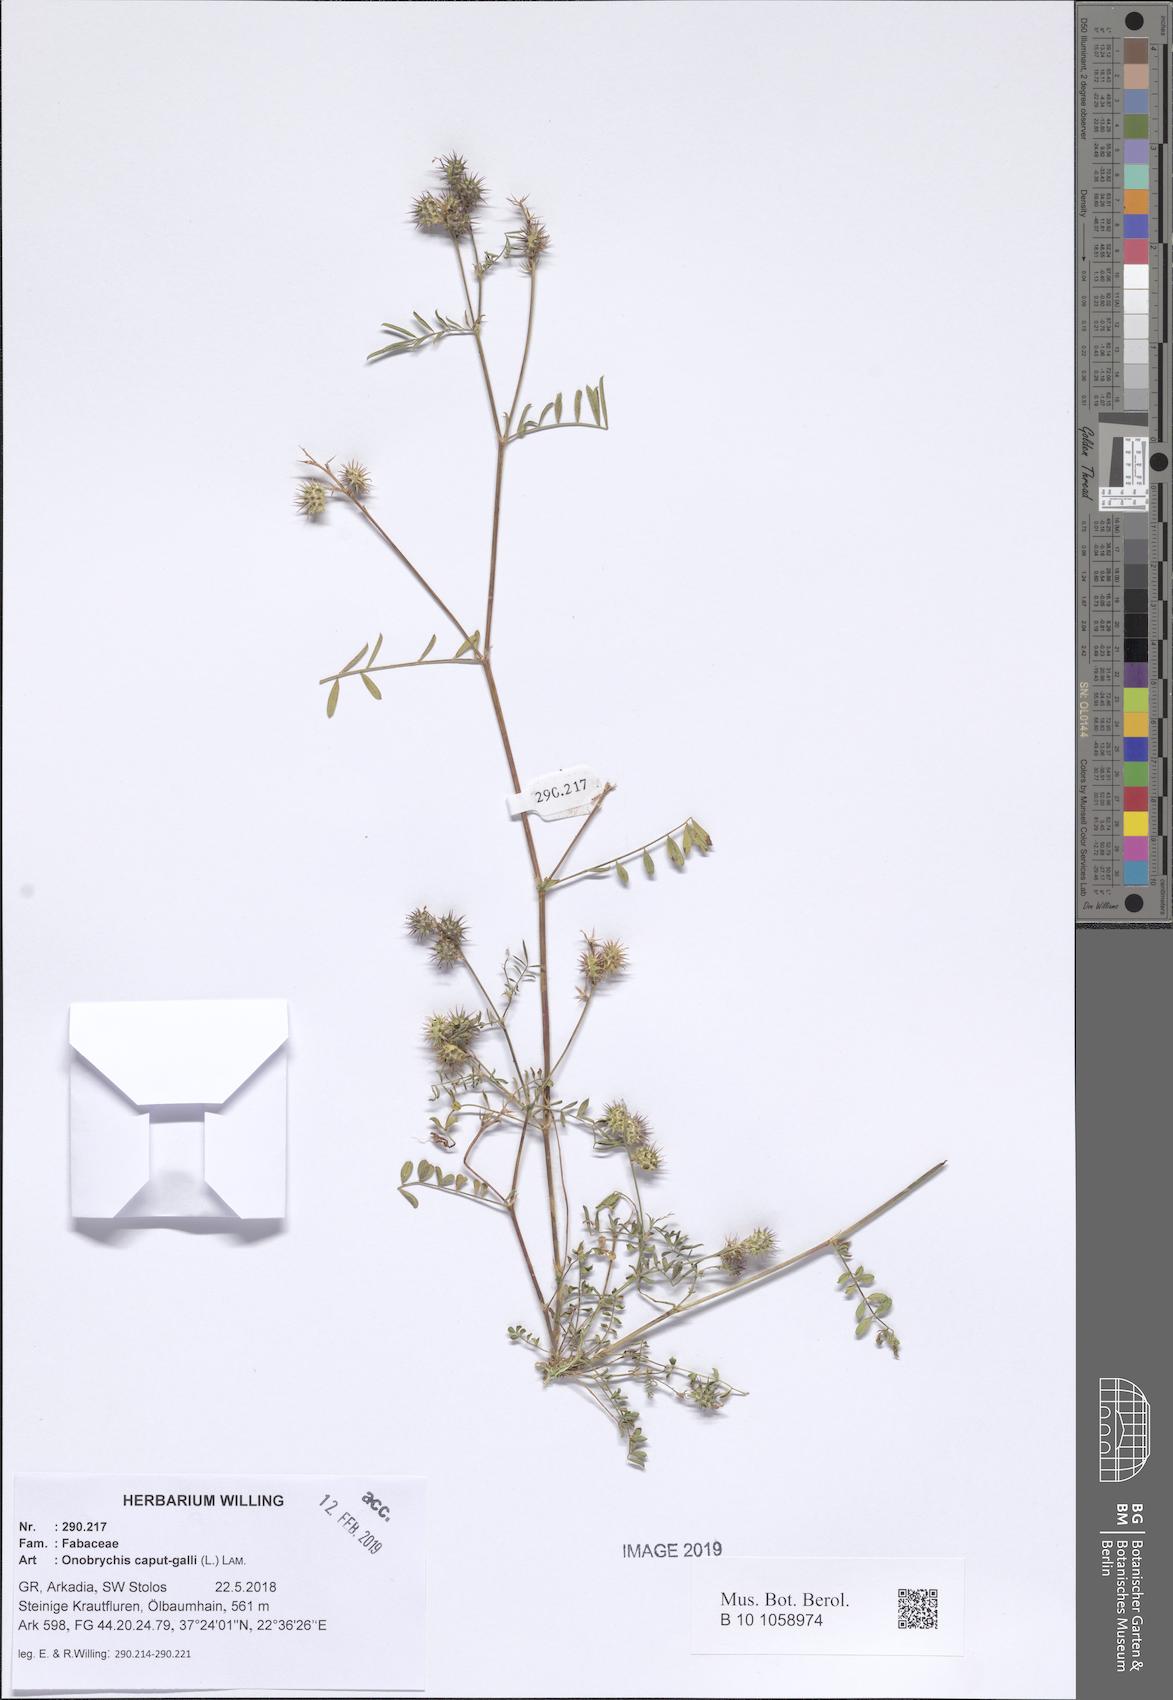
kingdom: Plantae
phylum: Tracheophyta
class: Magnoliopsida
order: Fabales
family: Fabaceae
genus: Onobrychis
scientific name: Onobrychis caput-galli
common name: Cockscomb sainfoin
